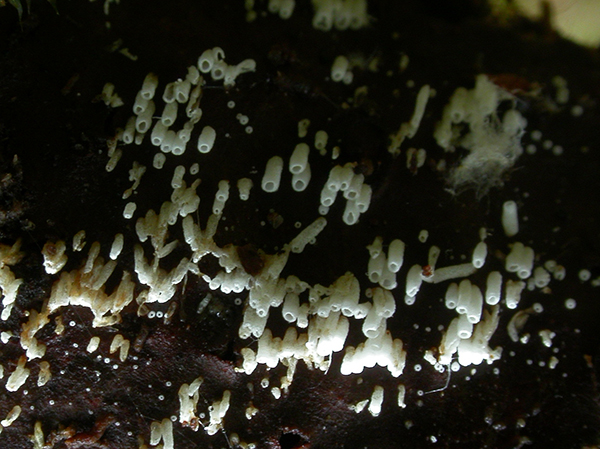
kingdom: Fungi
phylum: Basidiomycota
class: Agaricomycetes
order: Agaricales
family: Marasmiaceae
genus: Henningsomyces
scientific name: Henningsomyces candidus
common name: glat hængerør
